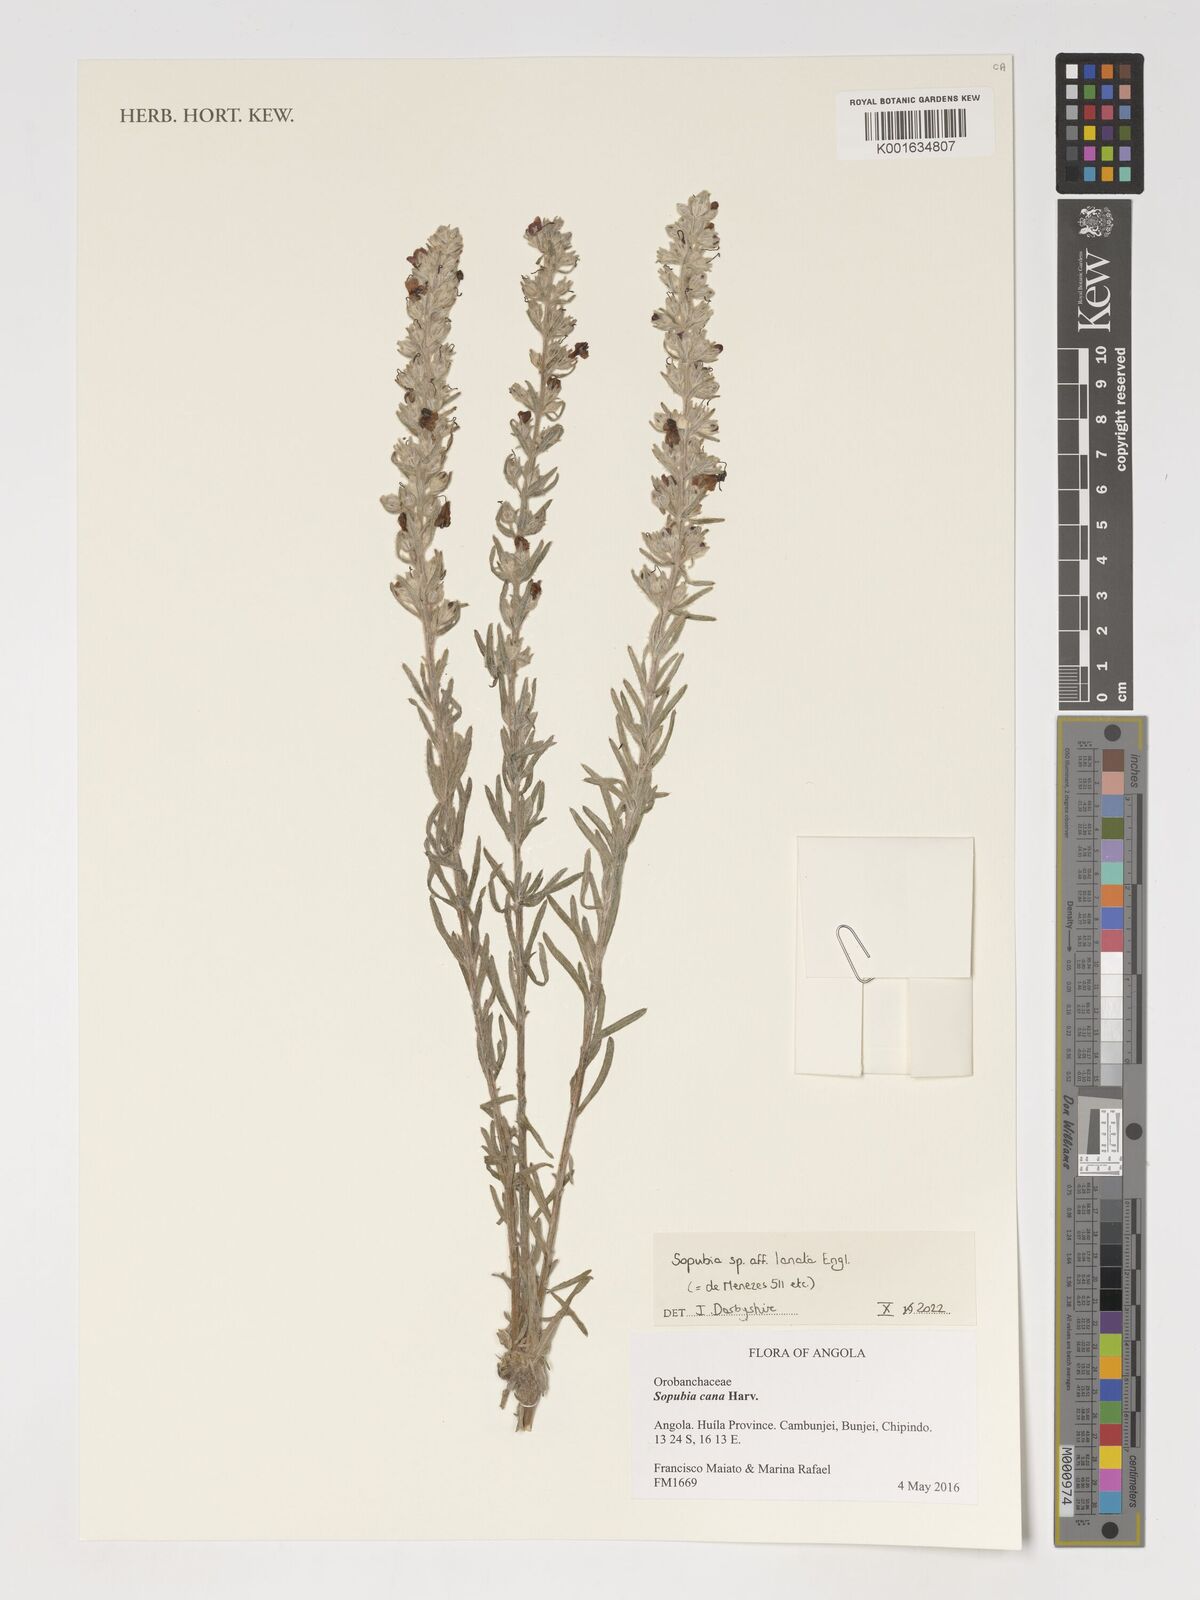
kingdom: Plantae
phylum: Tracheophyta
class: Magnoliopsida
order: Lamiales
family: Orobanchaceae
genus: Sopubia
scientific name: Sopubia lanata
